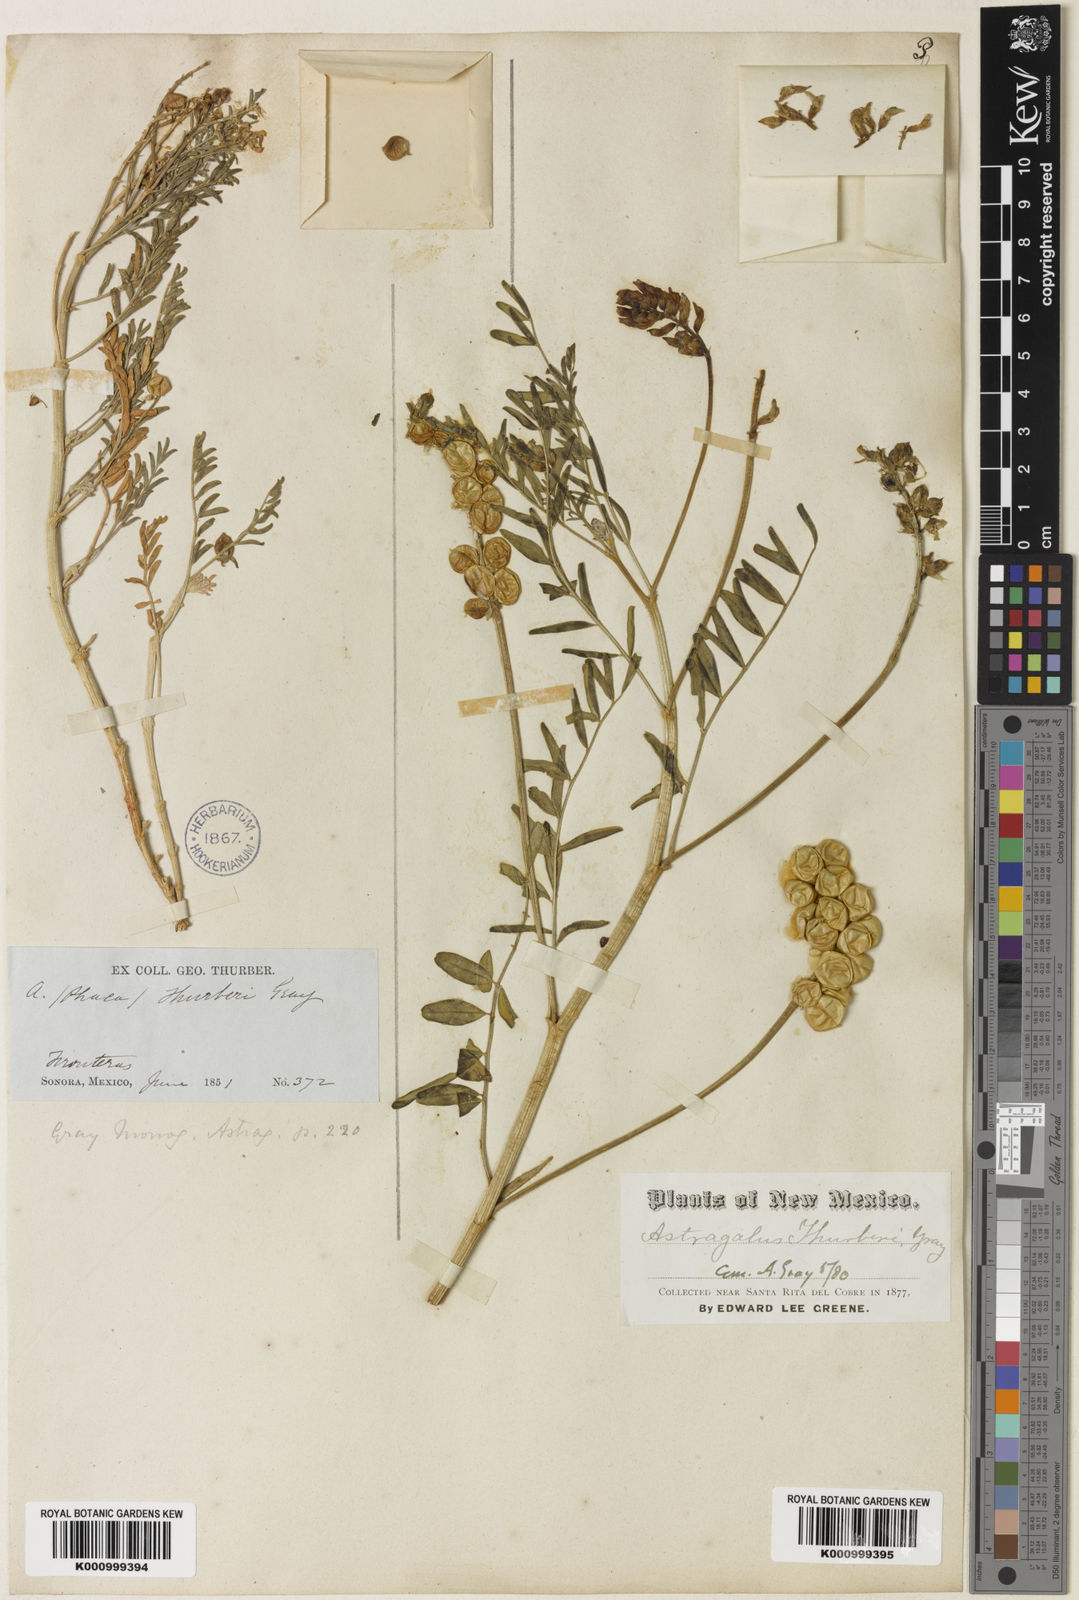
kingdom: Plantae
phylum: Tracheophyta
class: Magnoliopsida
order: Fabales
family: Fabaceae
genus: Astragalus
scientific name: Astragalus thurberi
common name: Thurber's milk-vetch
